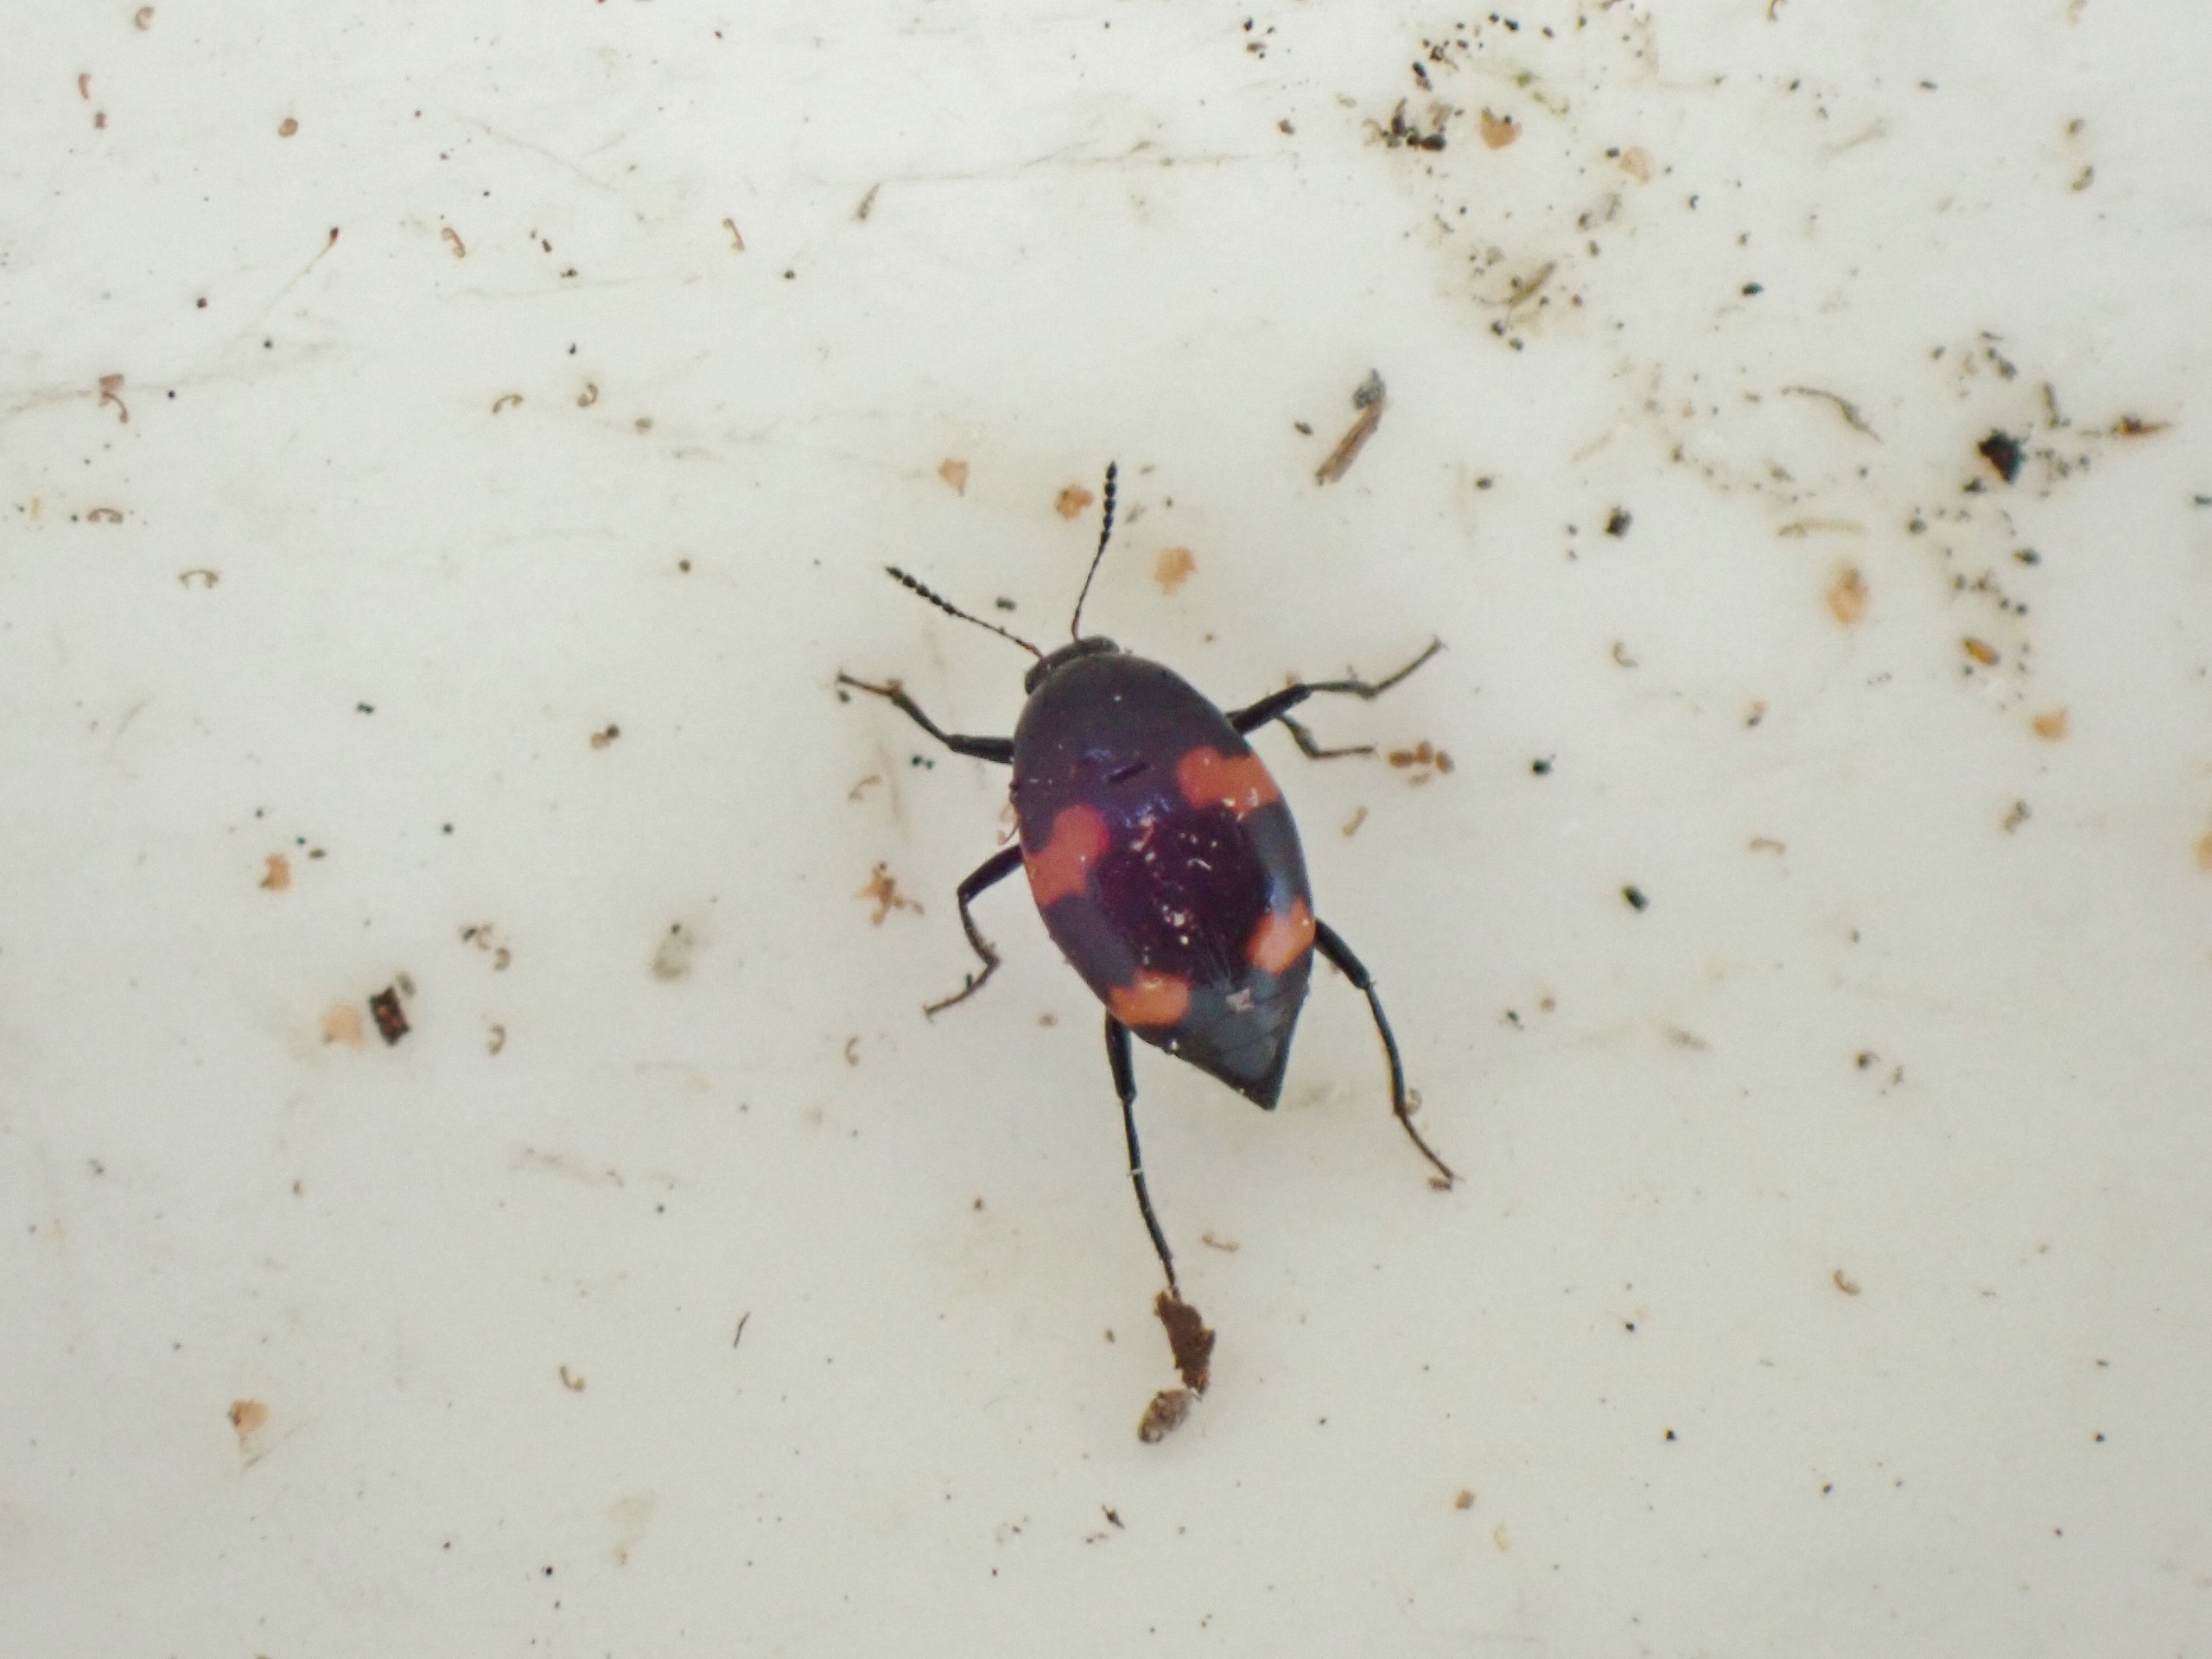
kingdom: Animalia
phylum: Arthropoda
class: Insecta
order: Coleoptera
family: Staphylinidae
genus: Scaphidium
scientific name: Scaphidium quadrimaculatum
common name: Dråberovbille
